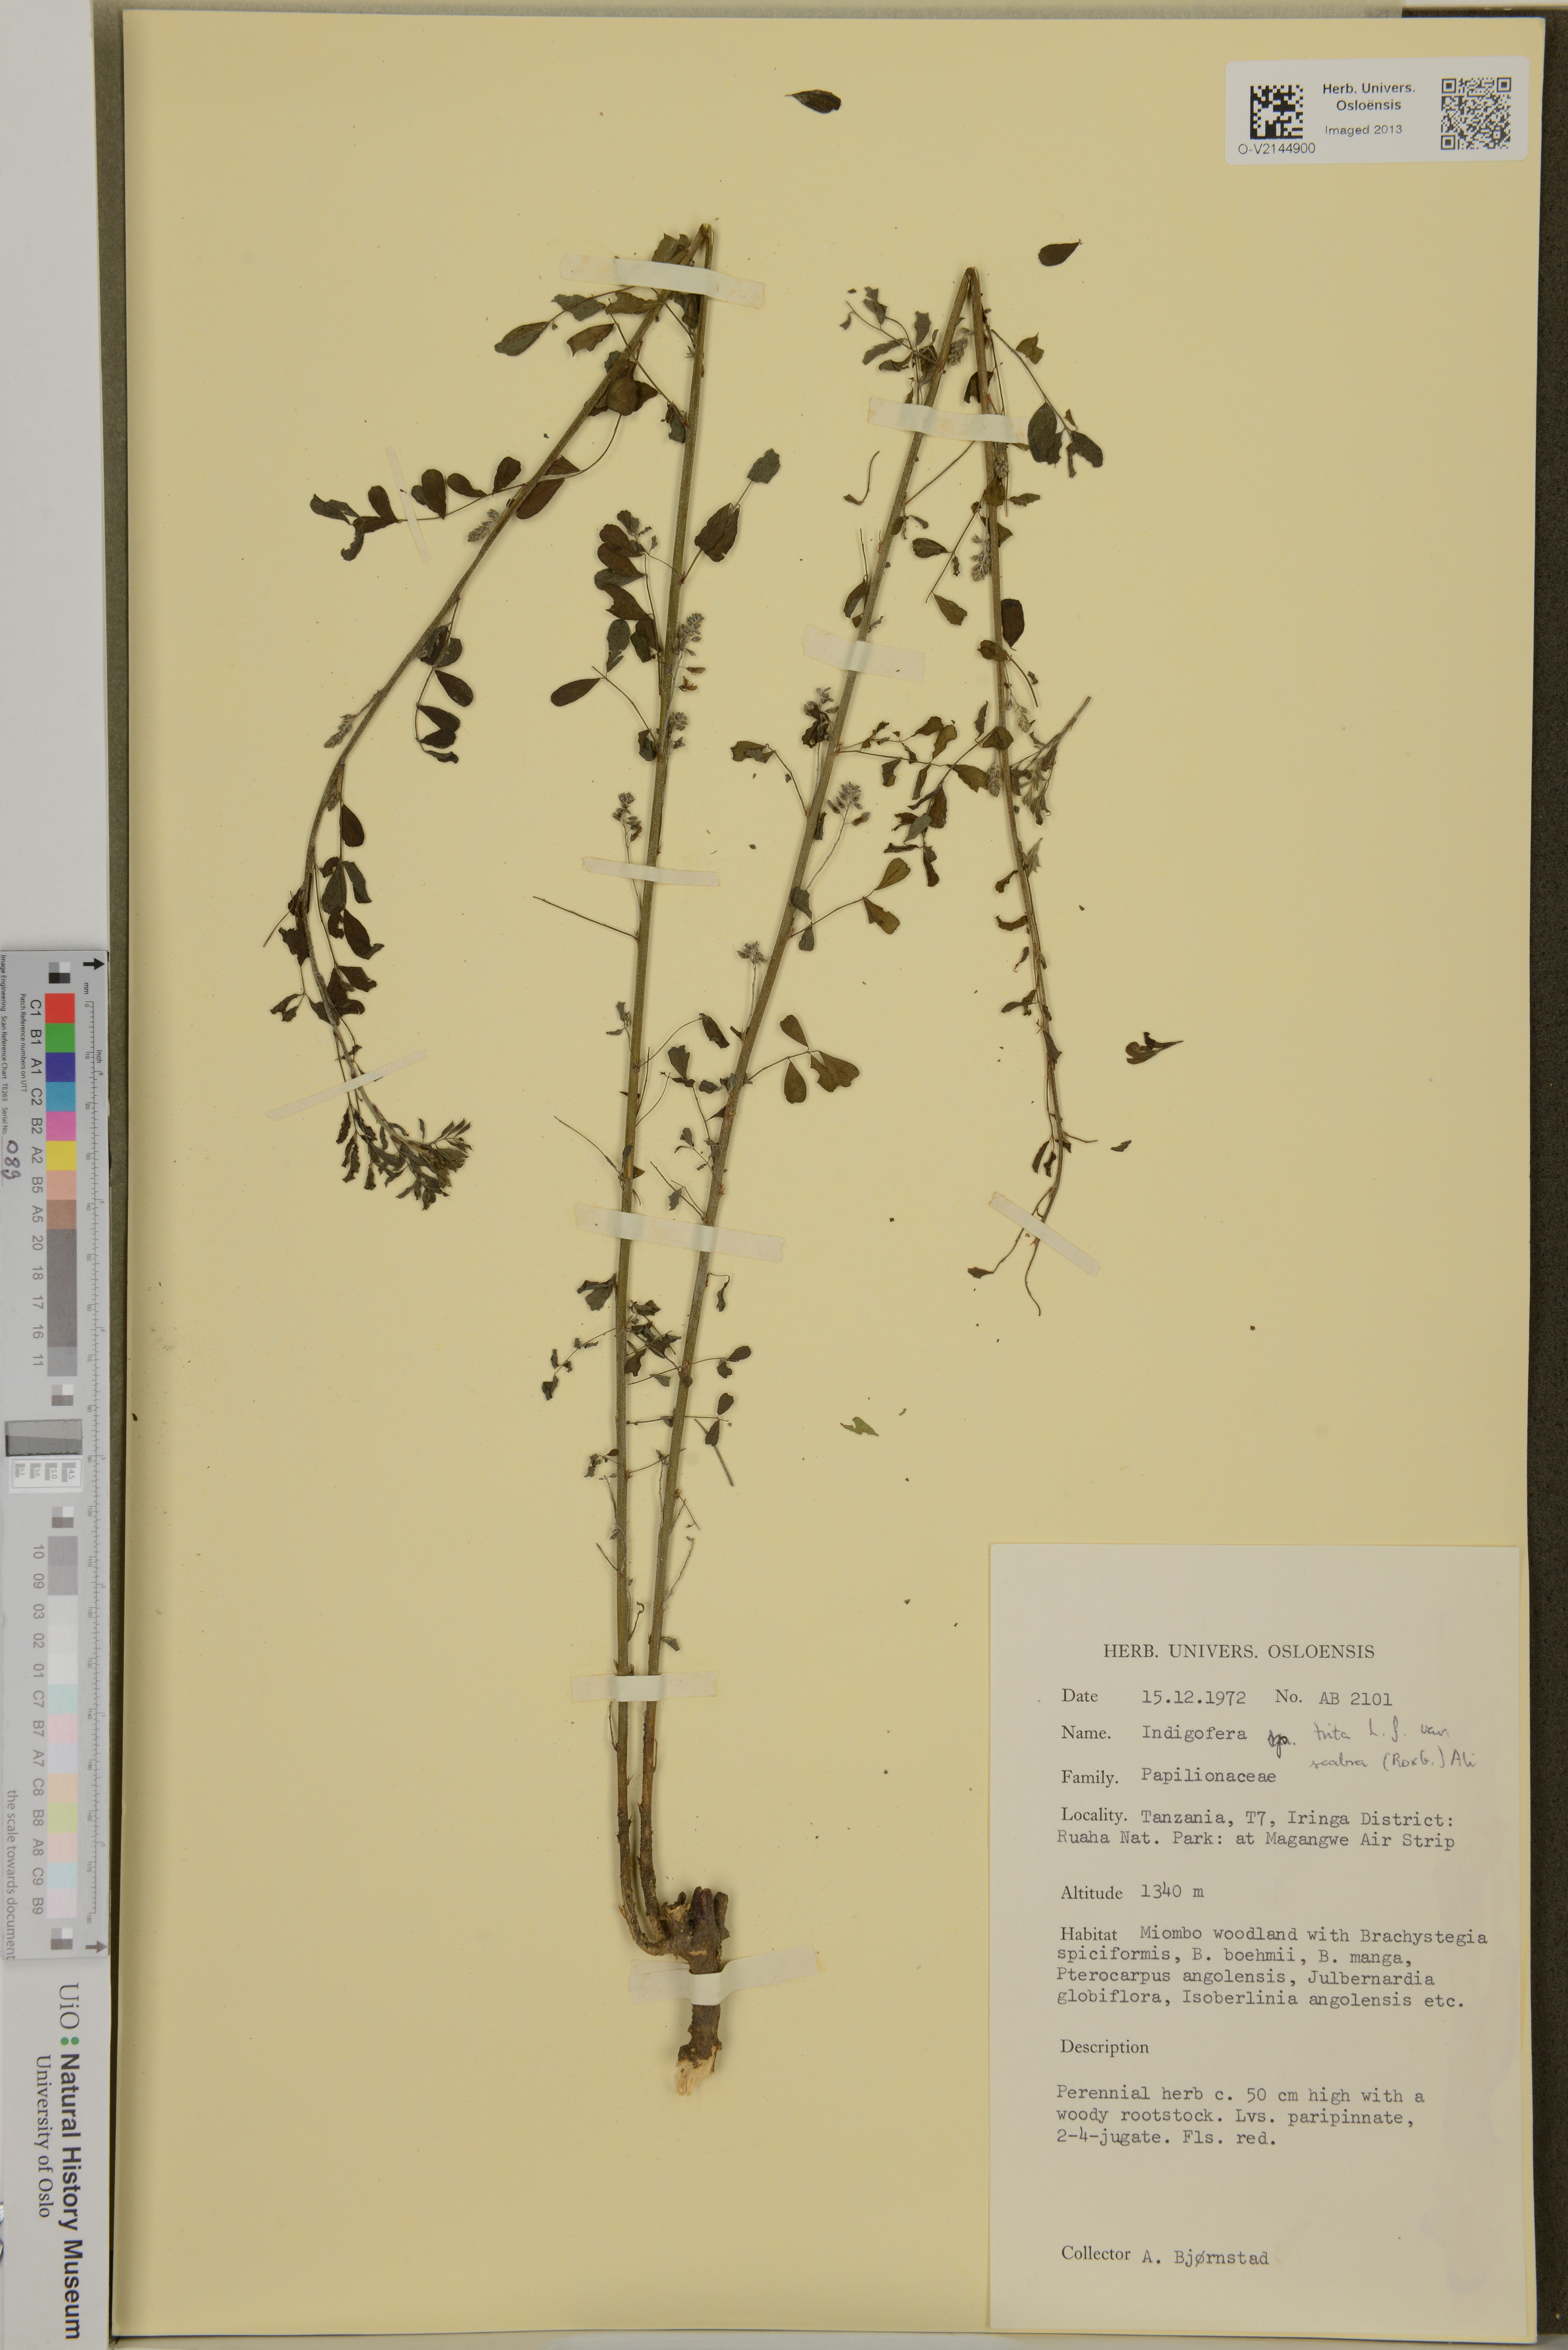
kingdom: Plantae
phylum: Tracheophyta
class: Magnoliopsida
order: Fabales
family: Fabaceae
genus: Indigofera
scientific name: Indigofera trita
